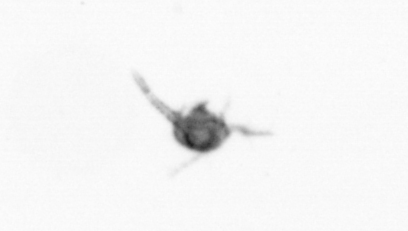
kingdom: Animalia
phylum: Arthropoda
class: Copepoda
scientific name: Copepoda
